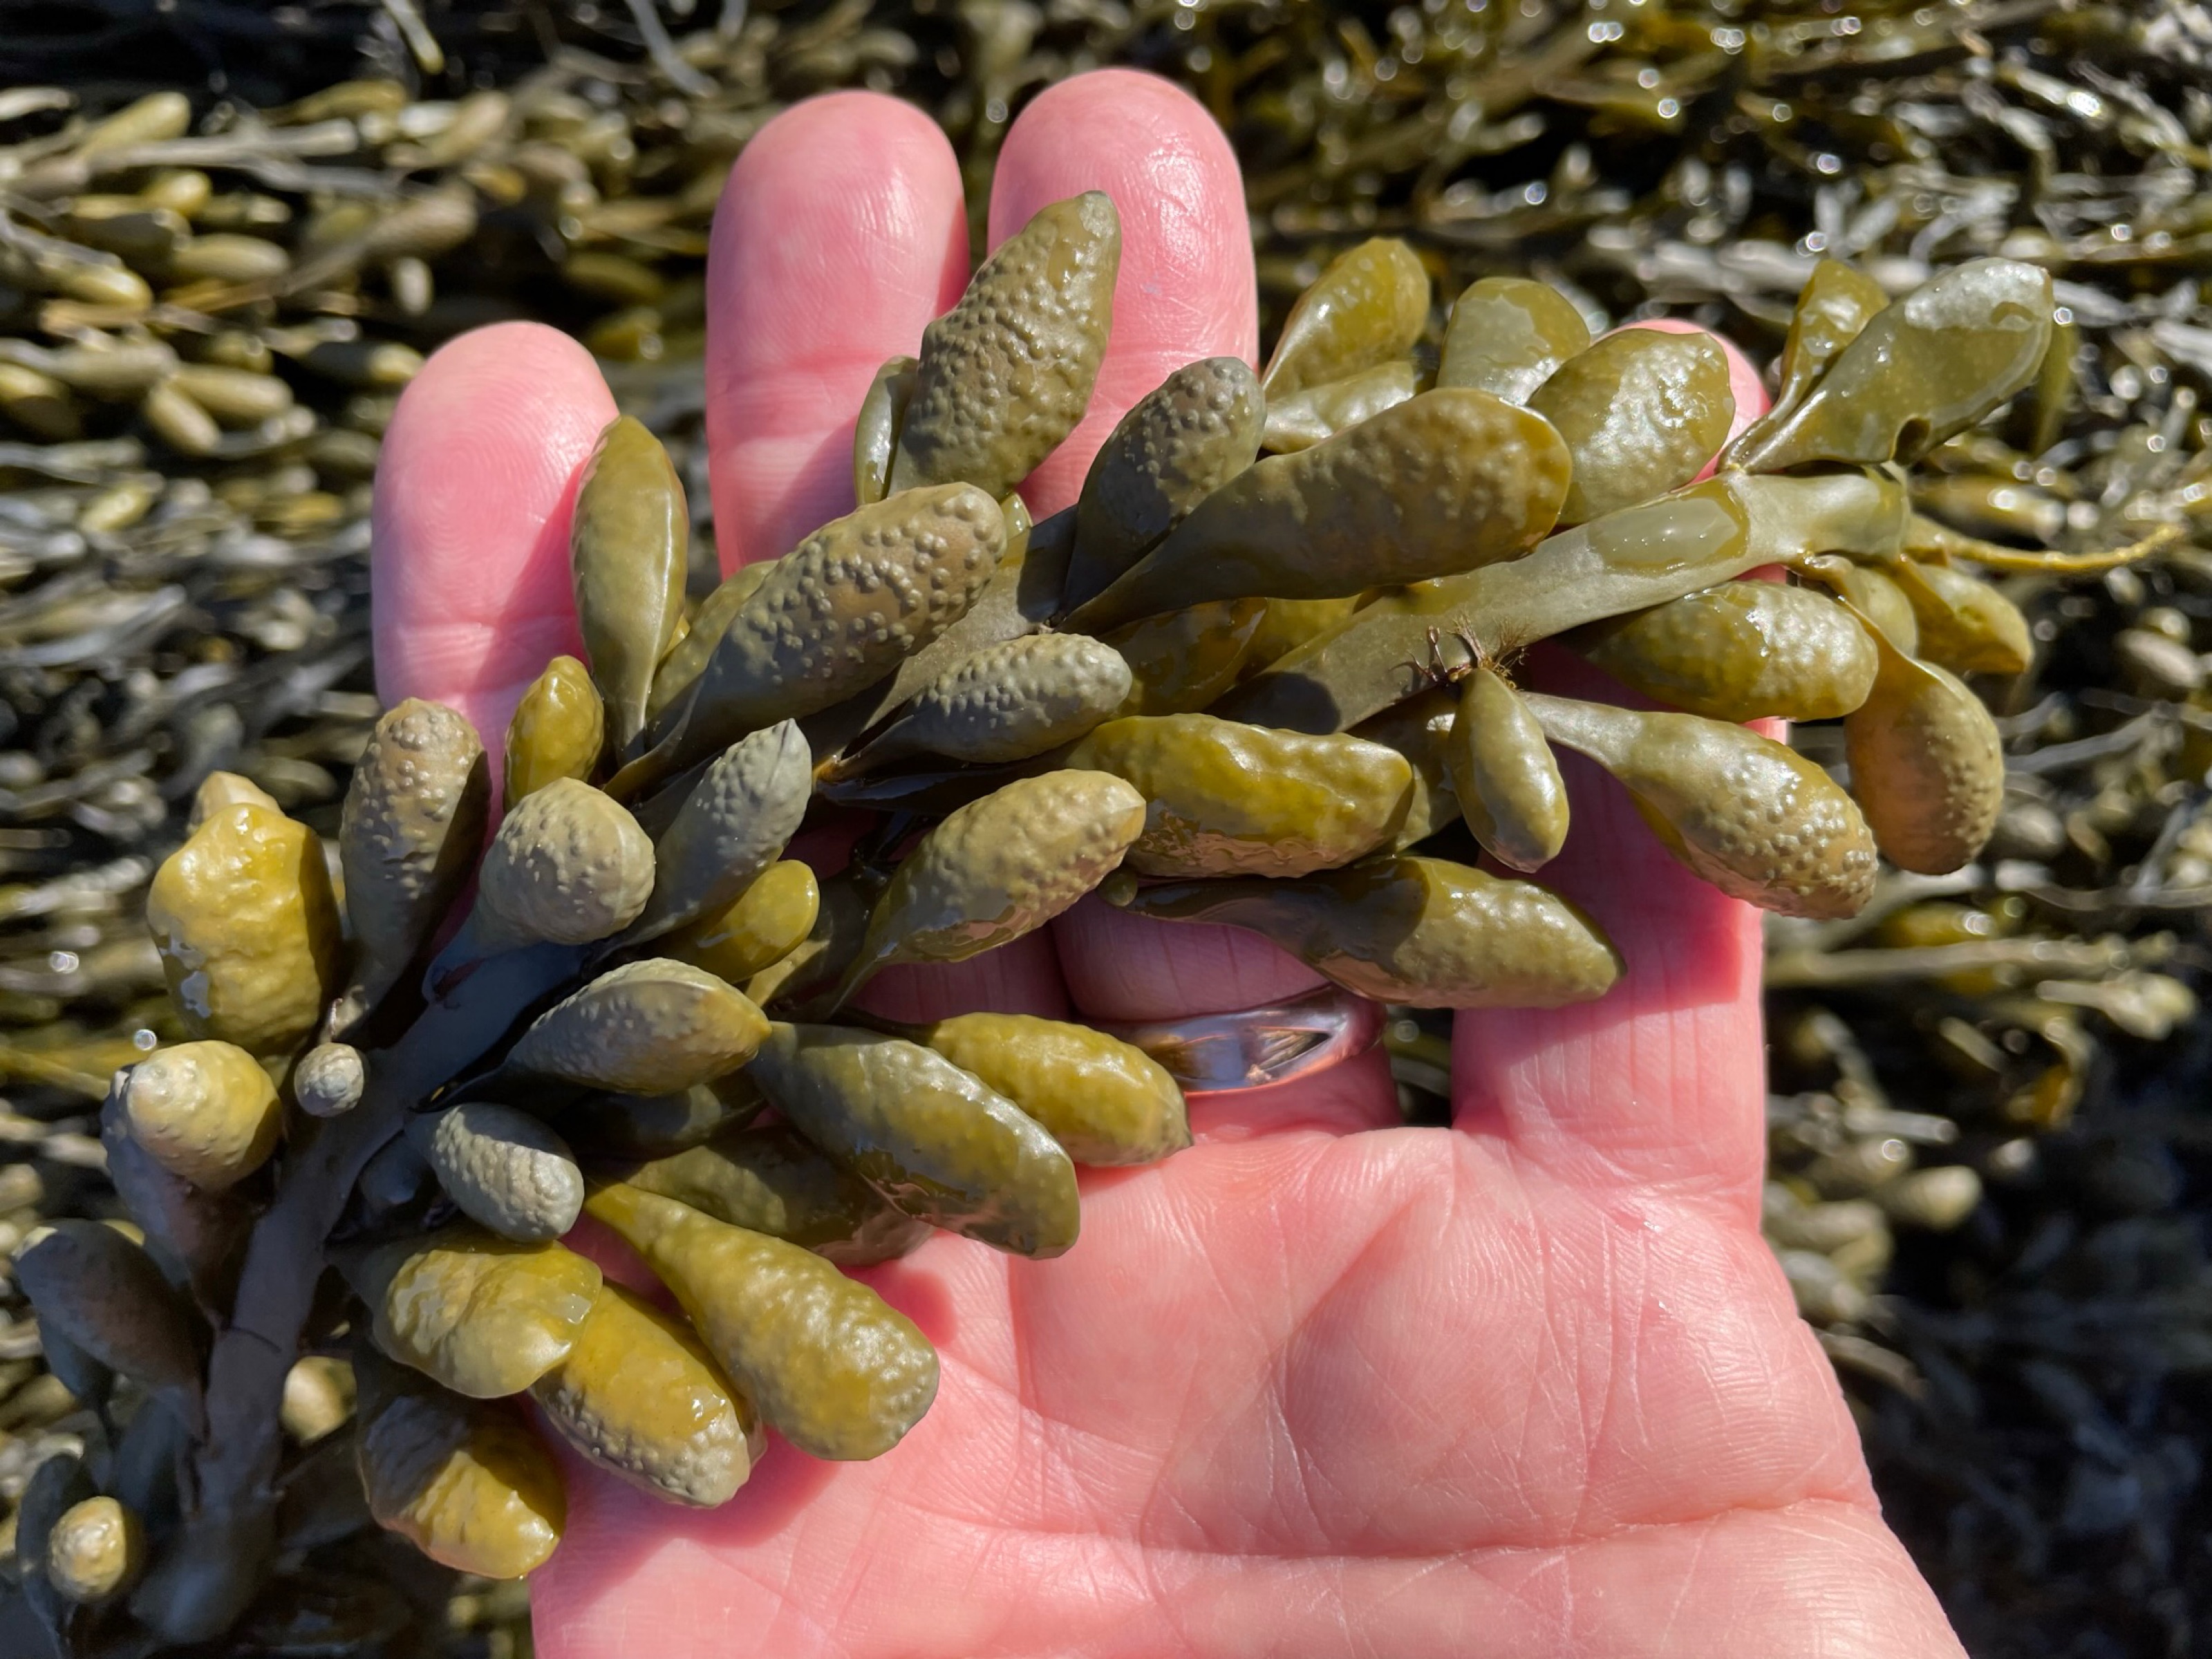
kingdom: Chromista
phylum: Ochrophyta
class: Phaeophyceae
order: Fucales
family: Fucaceae
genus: Ascophyllum
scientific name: Ascophyllum nodosum
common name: Rockweed
